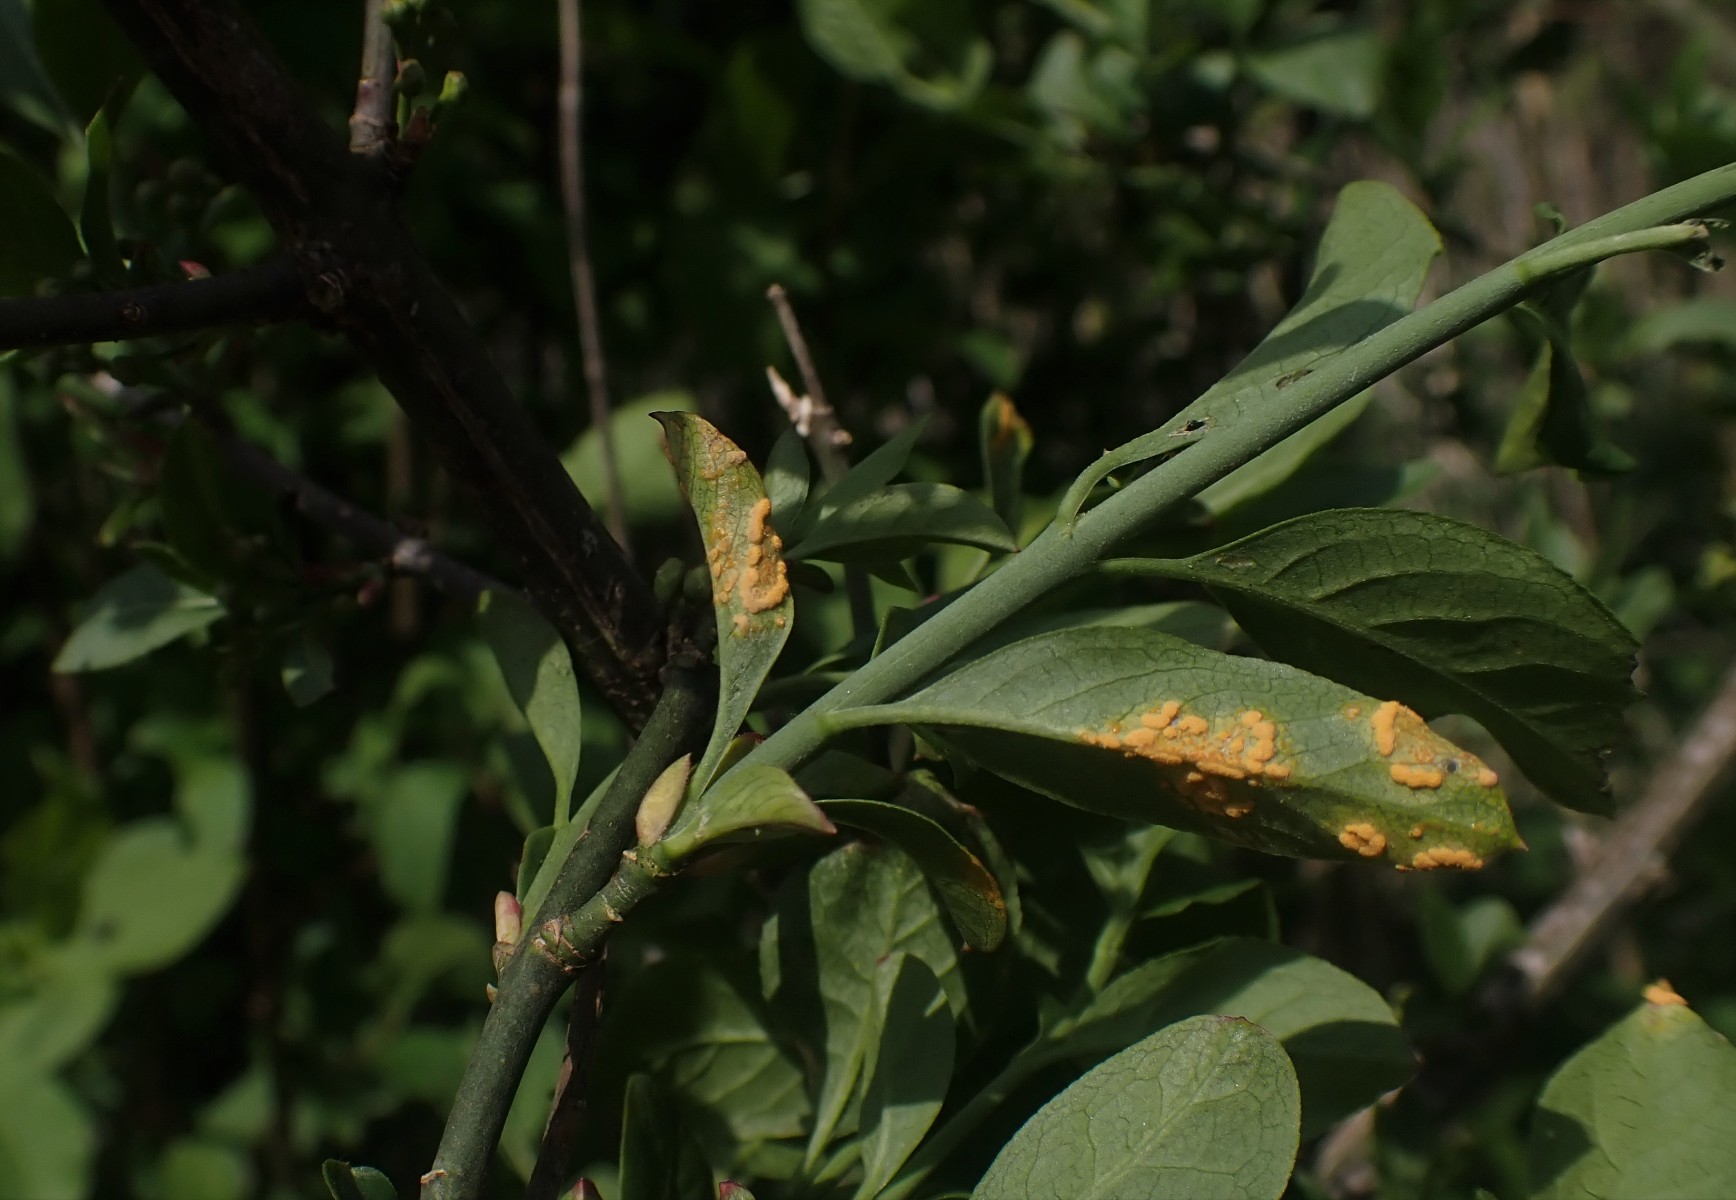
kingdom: Fungi
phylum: Basidiomycota
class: Pucciniomycetes
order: Pucciniales
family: Melampsoraceae
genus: Melampsora
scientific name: Melampsora epitea
